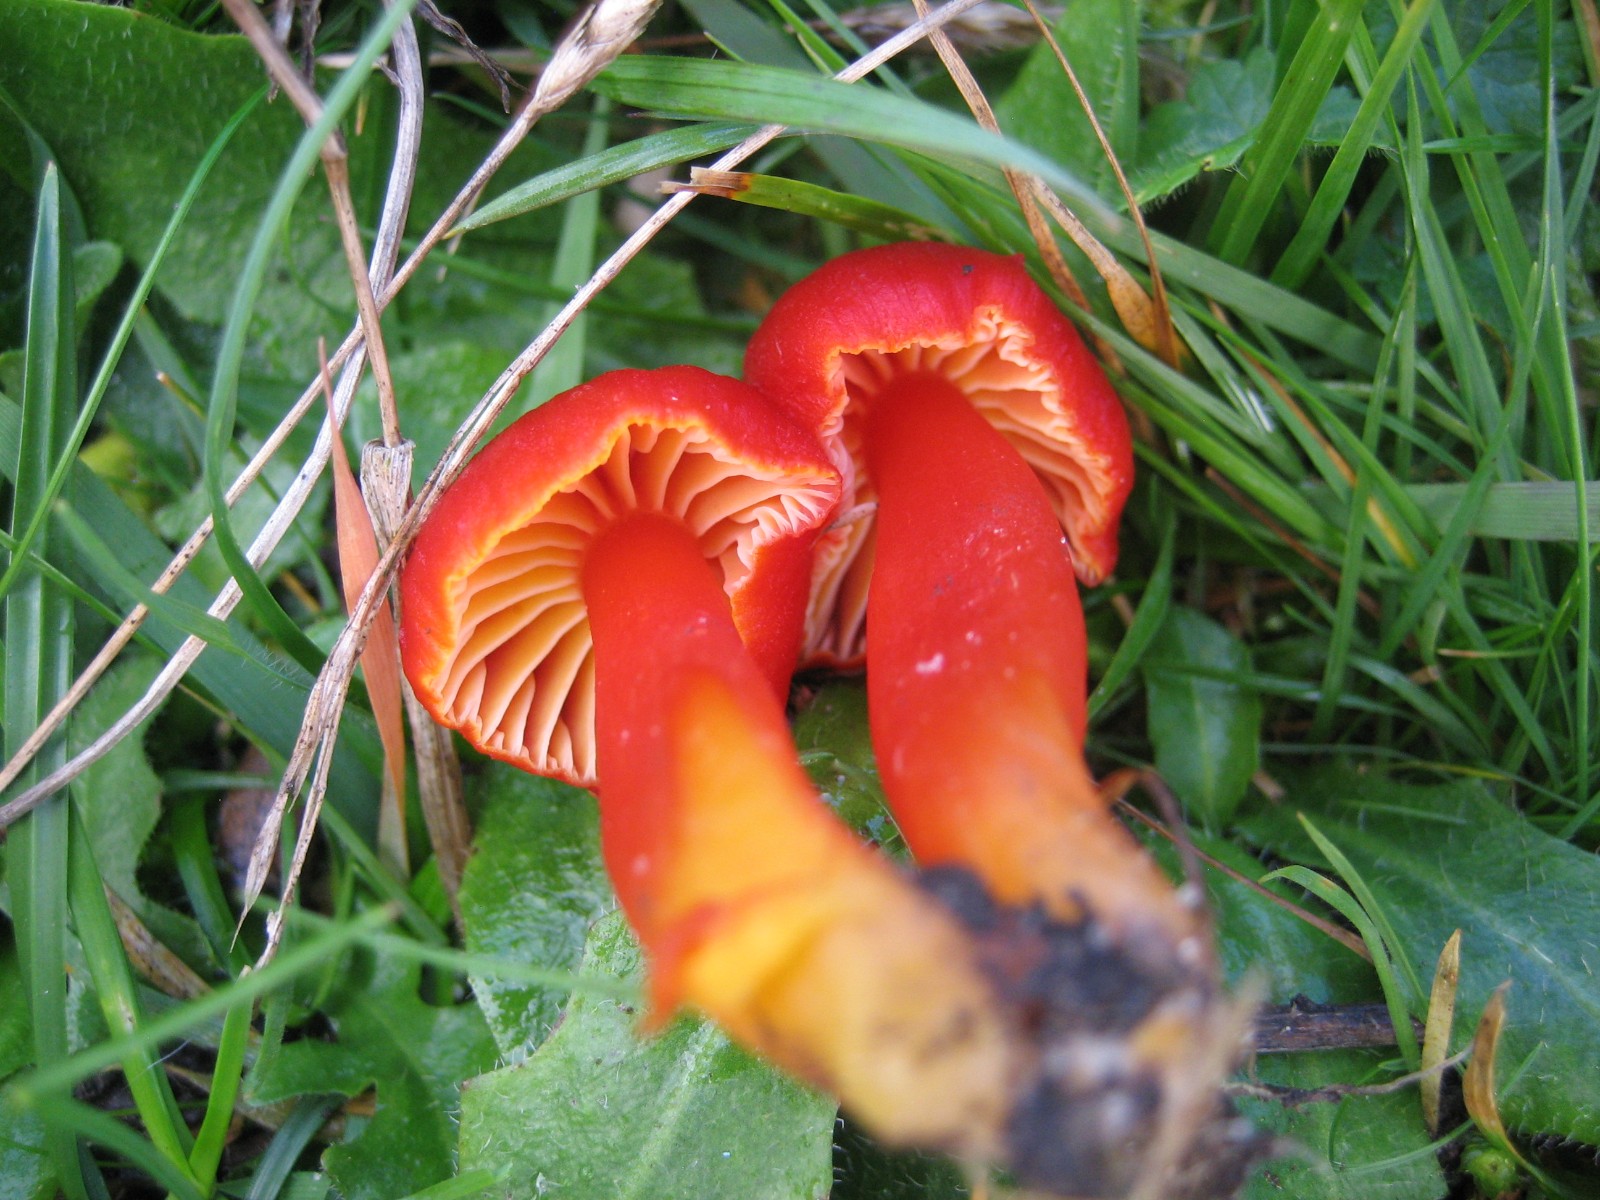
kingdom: Fungi
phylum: Basidiomycota
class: Agaricomycetes
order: Agaricales
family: Hygrophoraceae
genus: Hygrocybe
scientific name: Hygrocybe coccinea
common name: cinnober-vokshat
